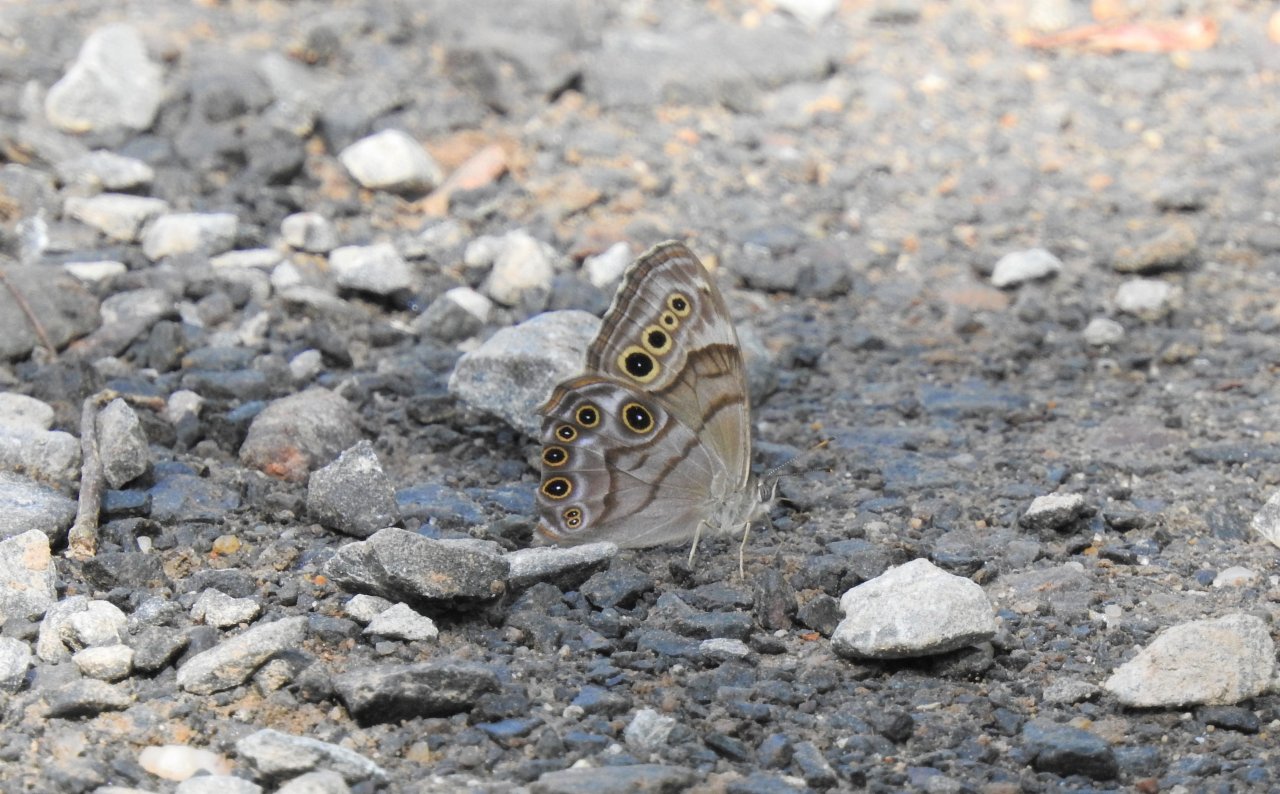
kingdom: Animalia
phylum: Arthropoda
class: Insecta
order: Lepidoptera
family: Nymphalidae
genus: Lethe
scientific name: Lethe anthedon
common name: Northern Pearly-Eye
